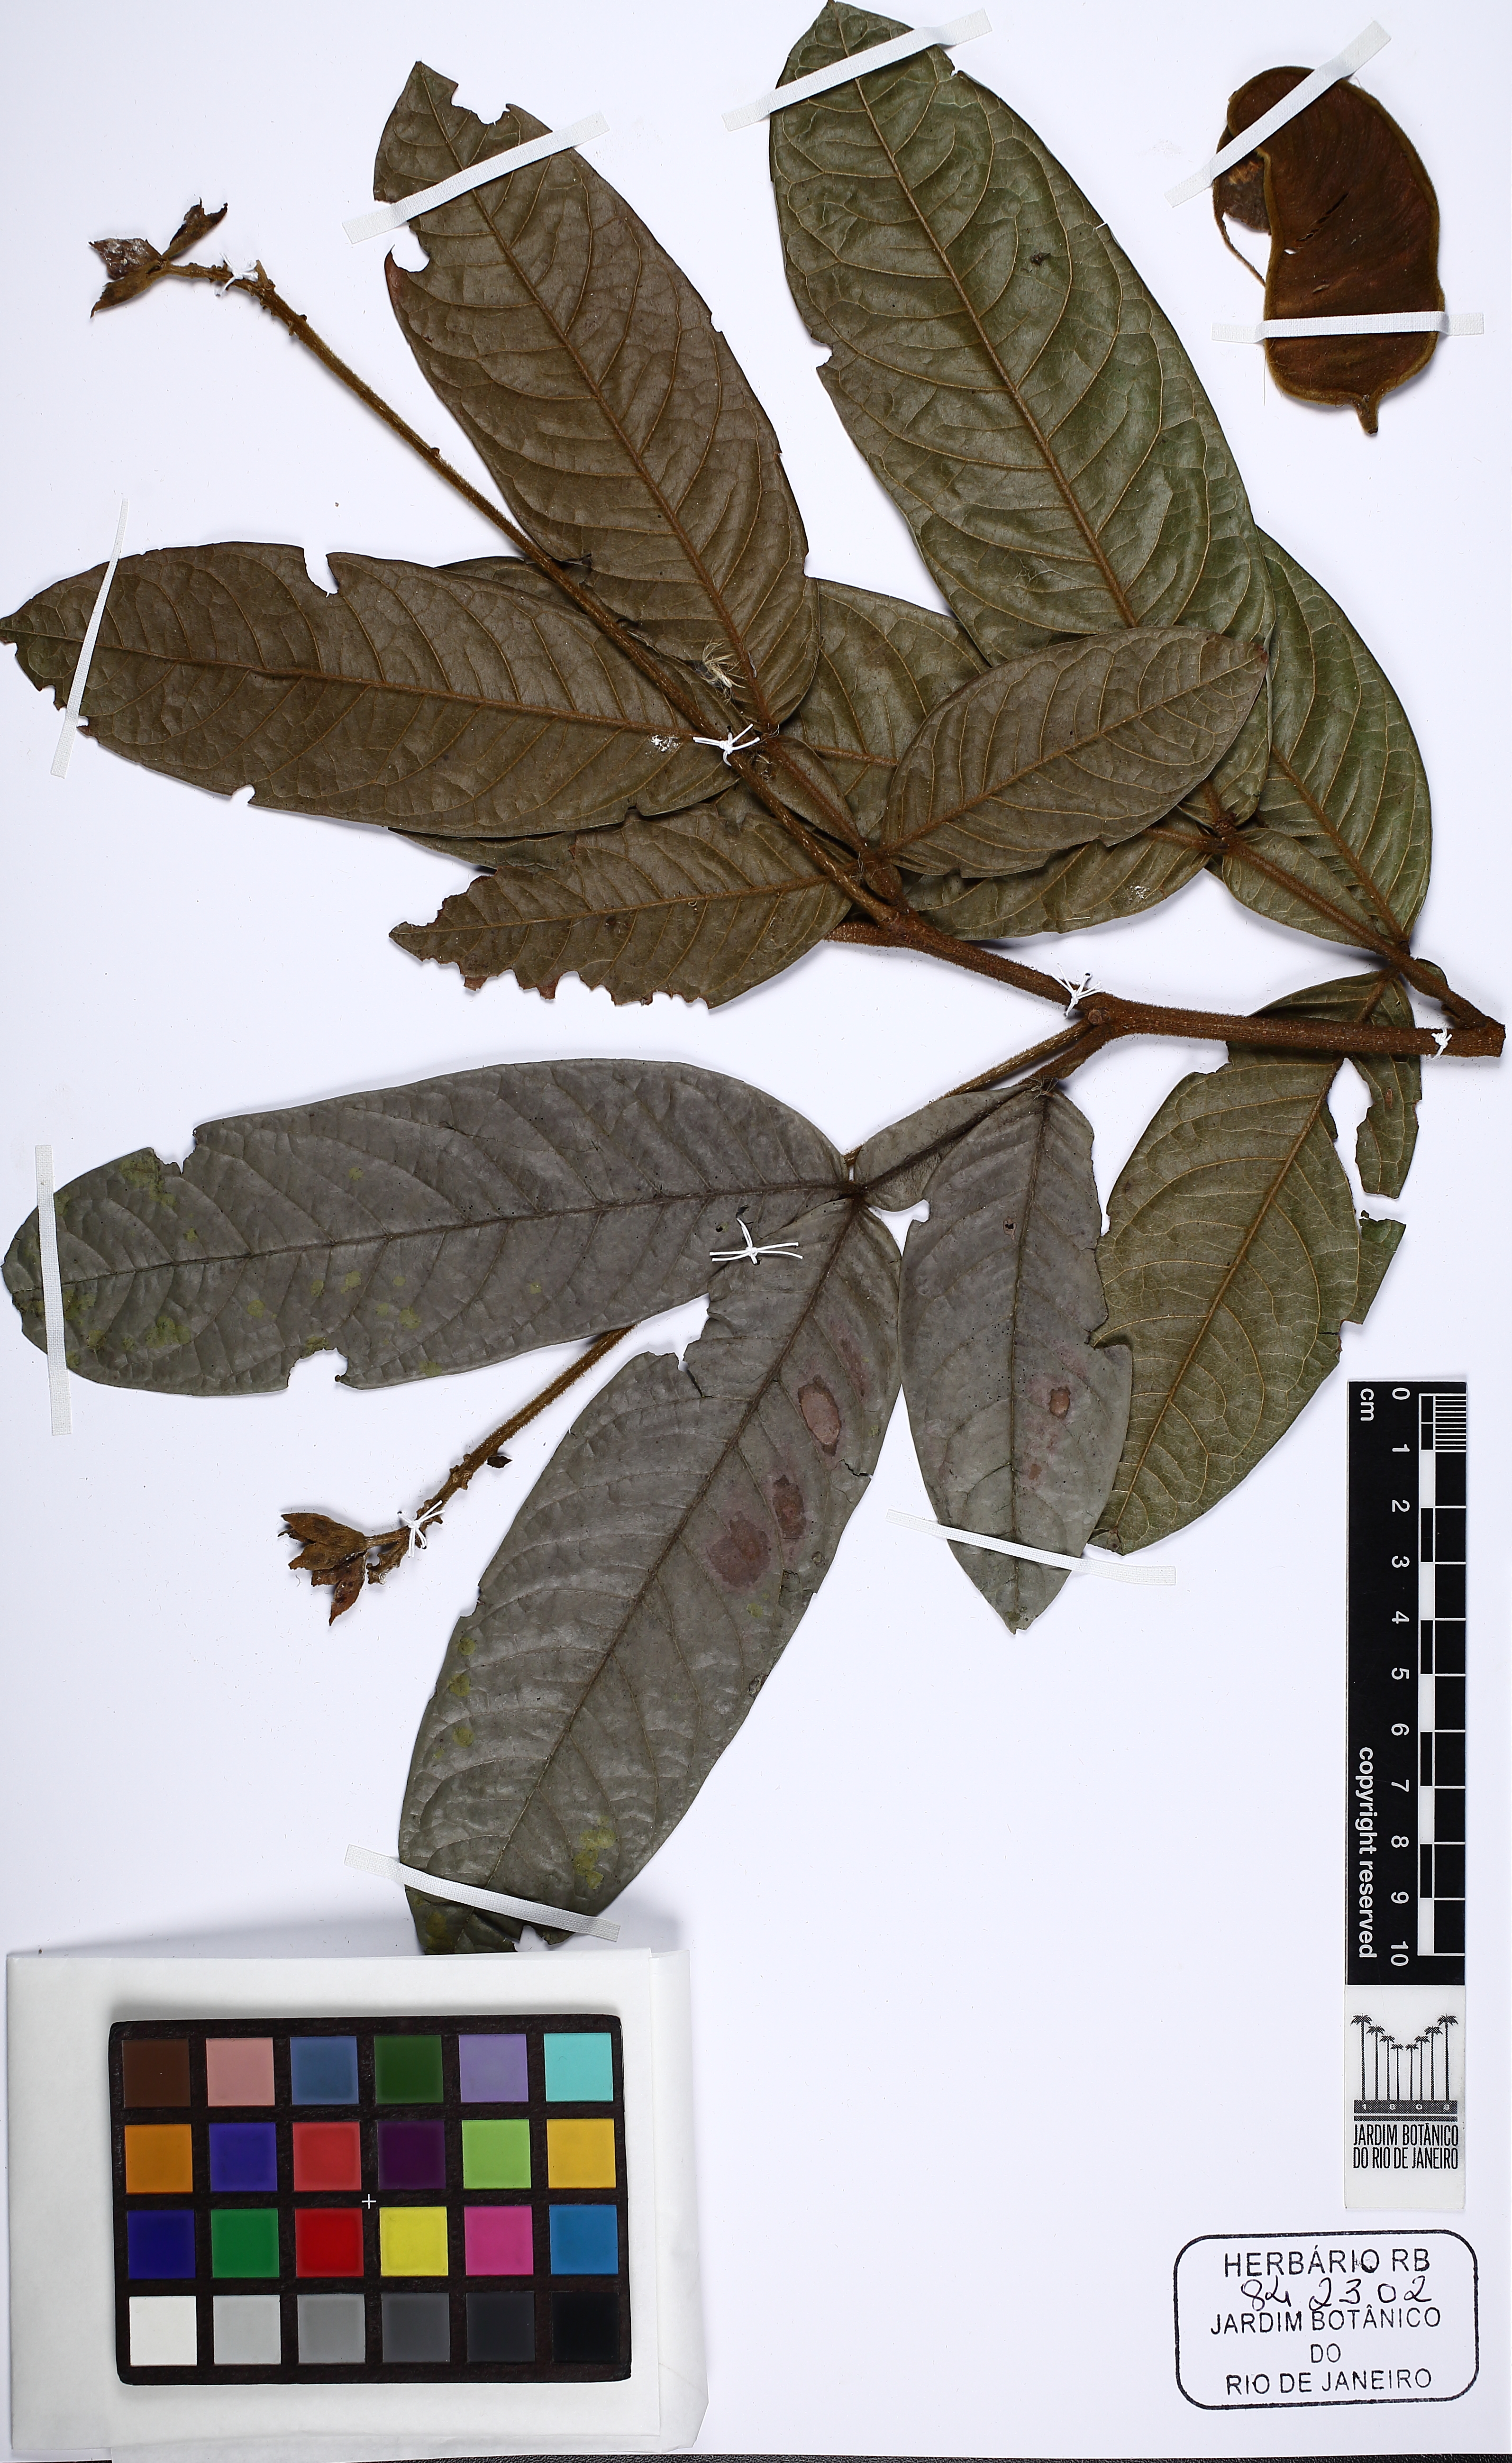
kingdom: Plantae
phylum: Tracheophyta
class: Magnoliopsida
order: Fabales
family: Fabaceae
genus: Inga
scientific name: Inga globularis
